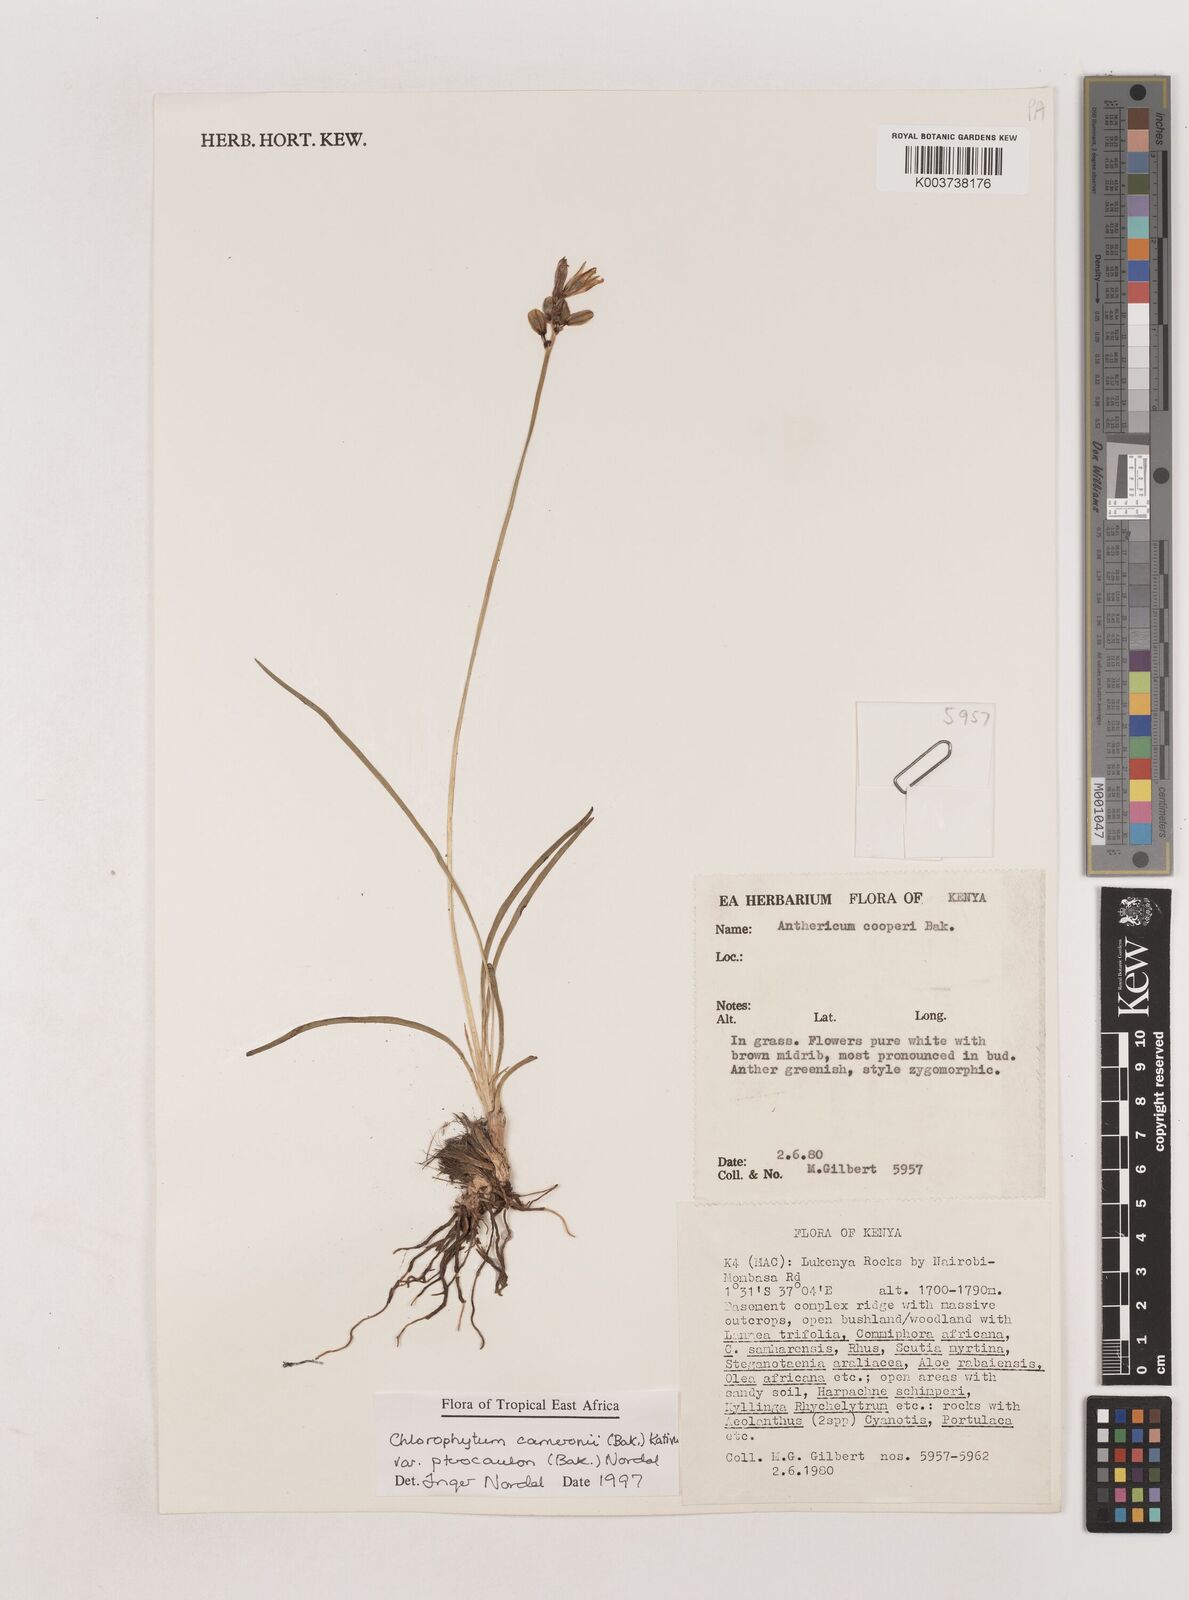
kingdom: Plantae
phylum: Tracheophyta
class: Liliopsida
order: Asparagales
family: Asparagaceae
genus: Chlorophytum
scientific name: Chlorophytum cameronii
